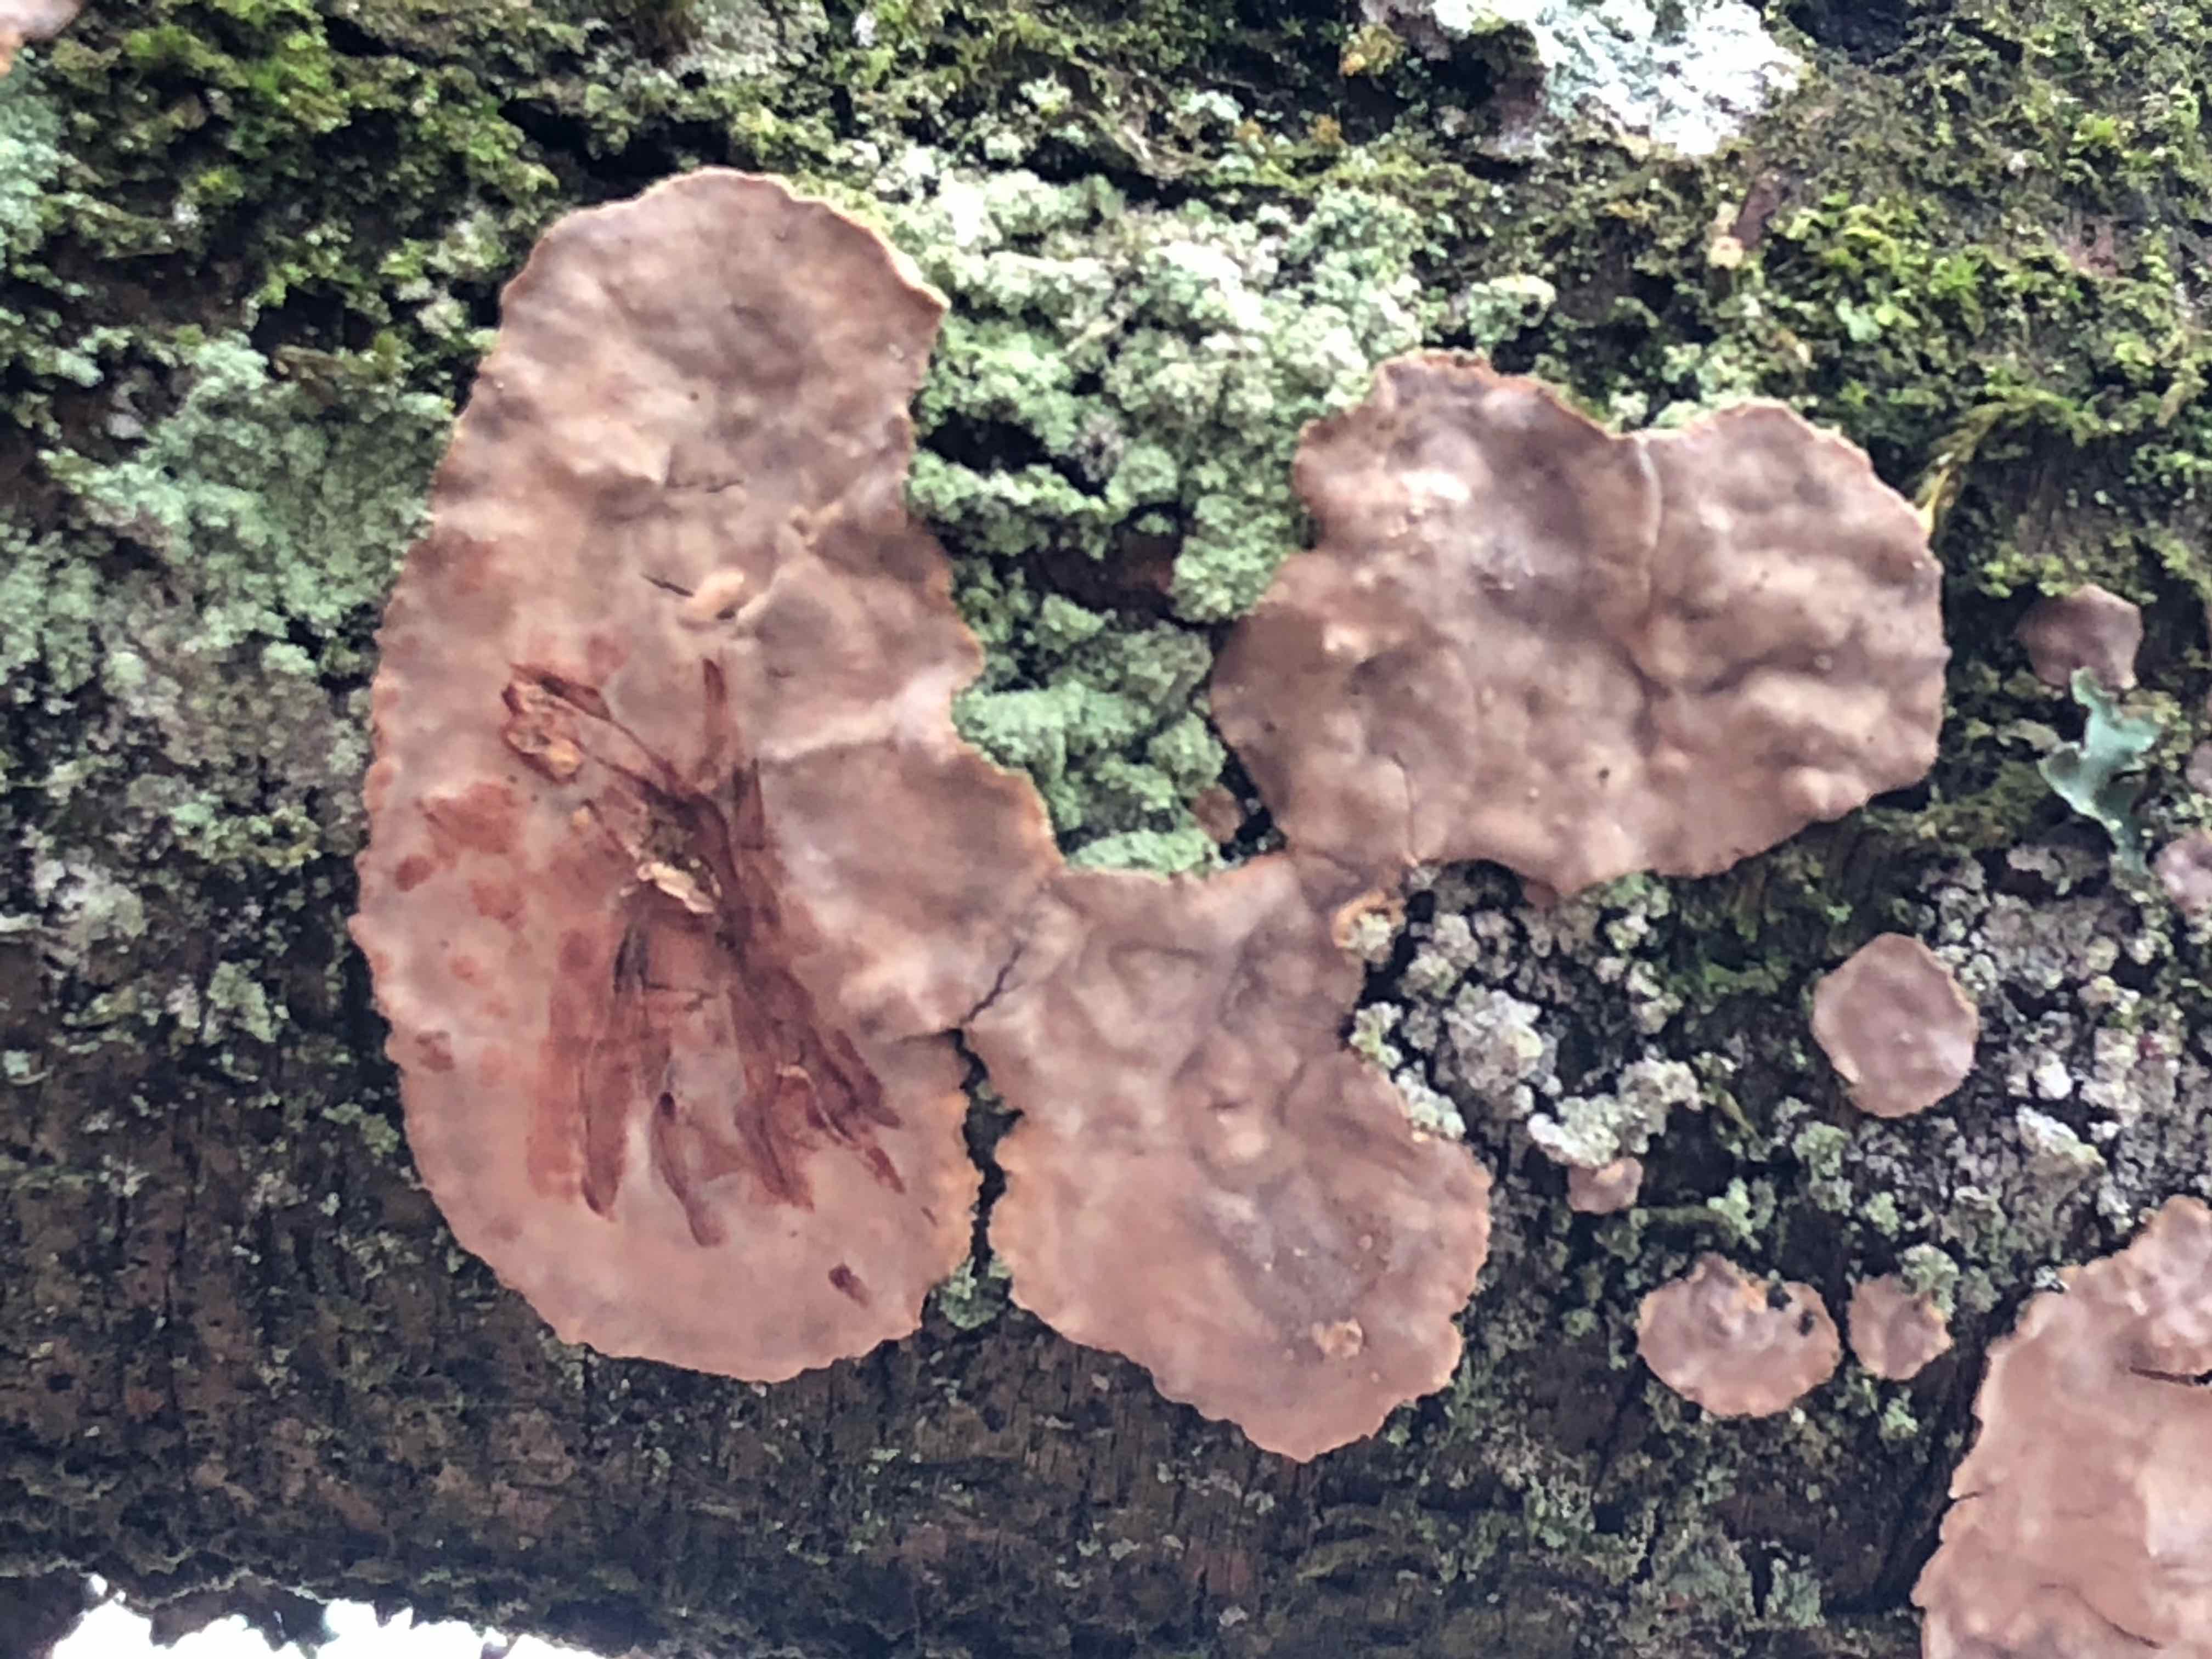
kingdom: Fungi
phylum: Basidiomycota
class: Agaricomycetes
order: Russulales
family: Stereaceae
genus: Stereum
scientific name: Stereum rugosum
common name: rynket lædersvamp
